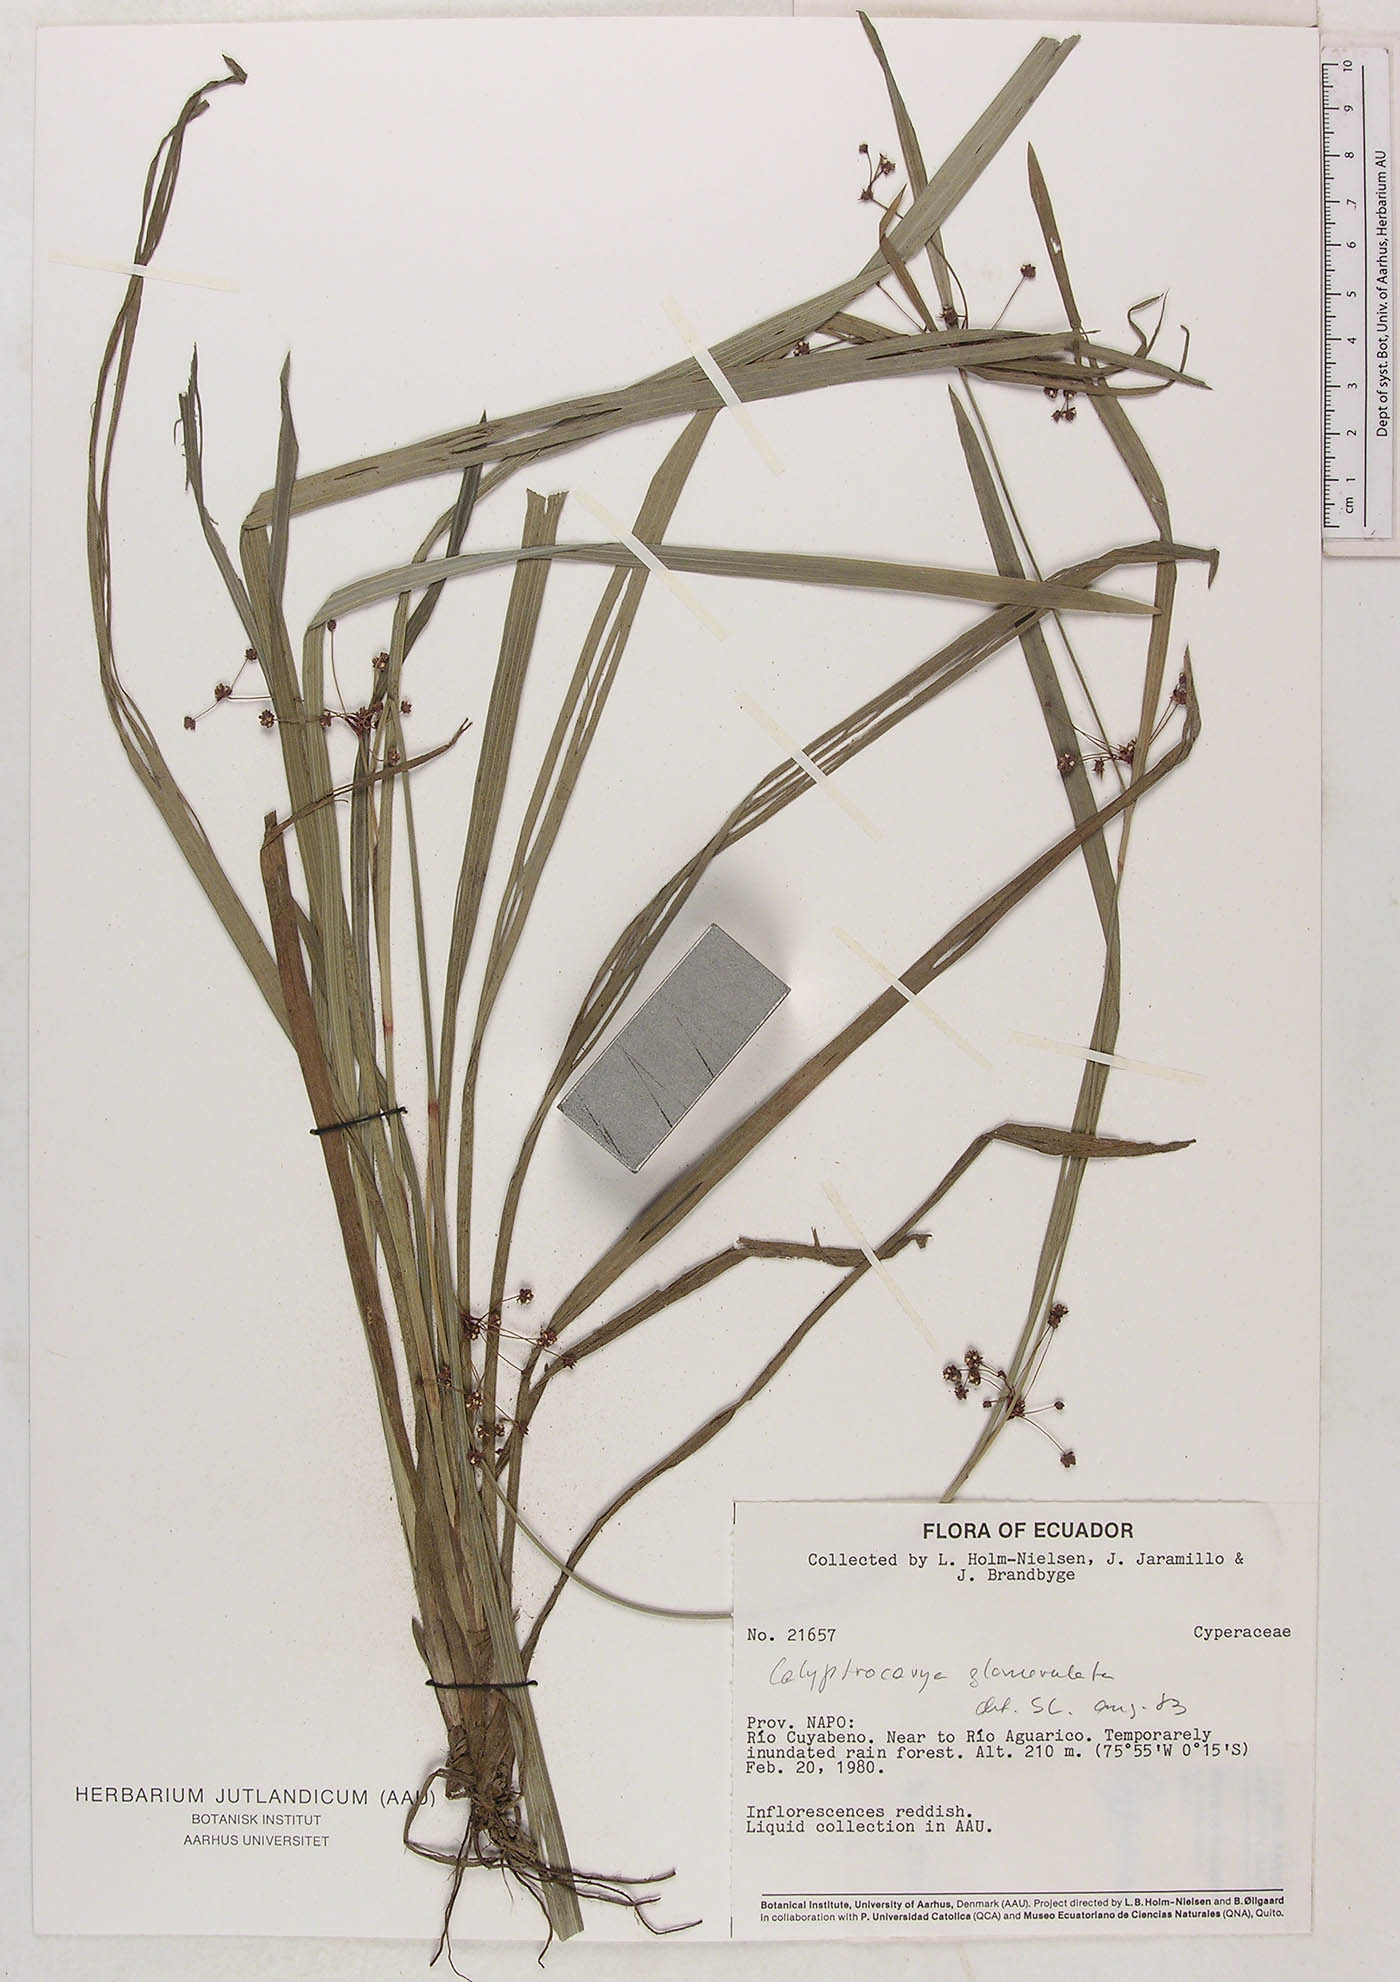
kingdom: Plantae
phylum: Tracheophyta
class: Liliopsida
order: Poales
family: Cyperaceae
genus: Calyptrocarya
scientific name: Calyptrocarya glomerulata
